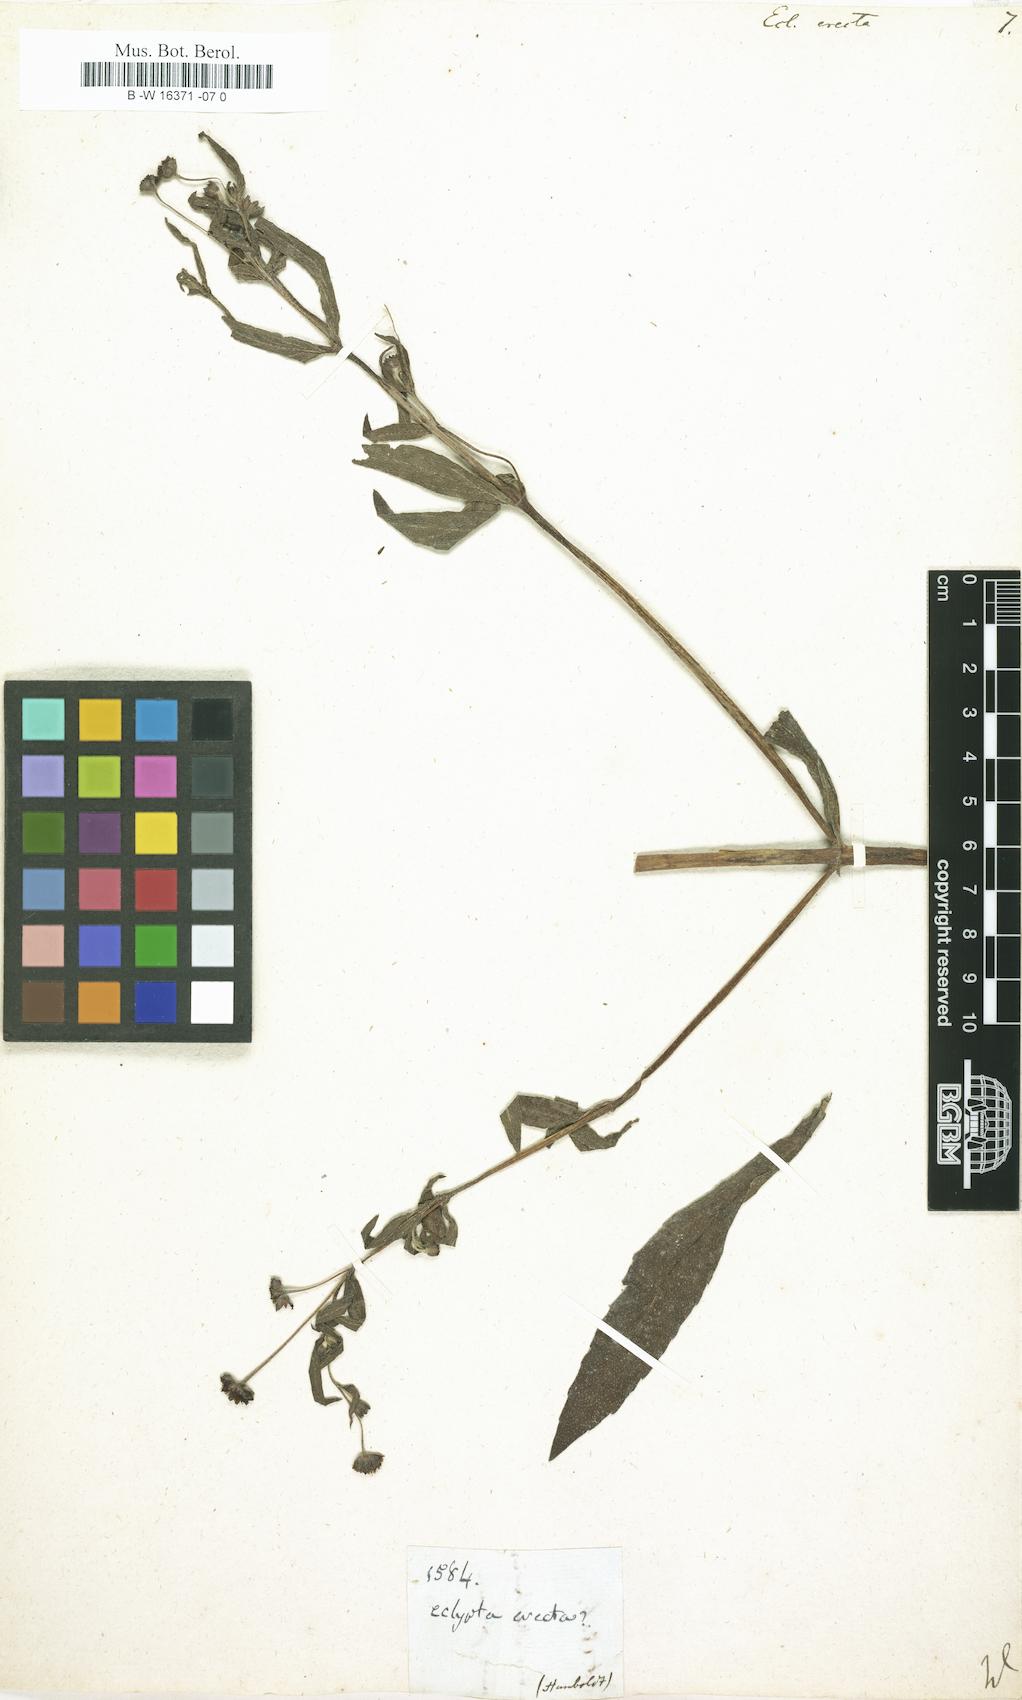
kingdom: Plantae
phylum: Tracheophyta
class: Magnoliopsida
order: Asterales
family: Asteraceae
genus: Eclipta
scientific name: Eclipta alba
